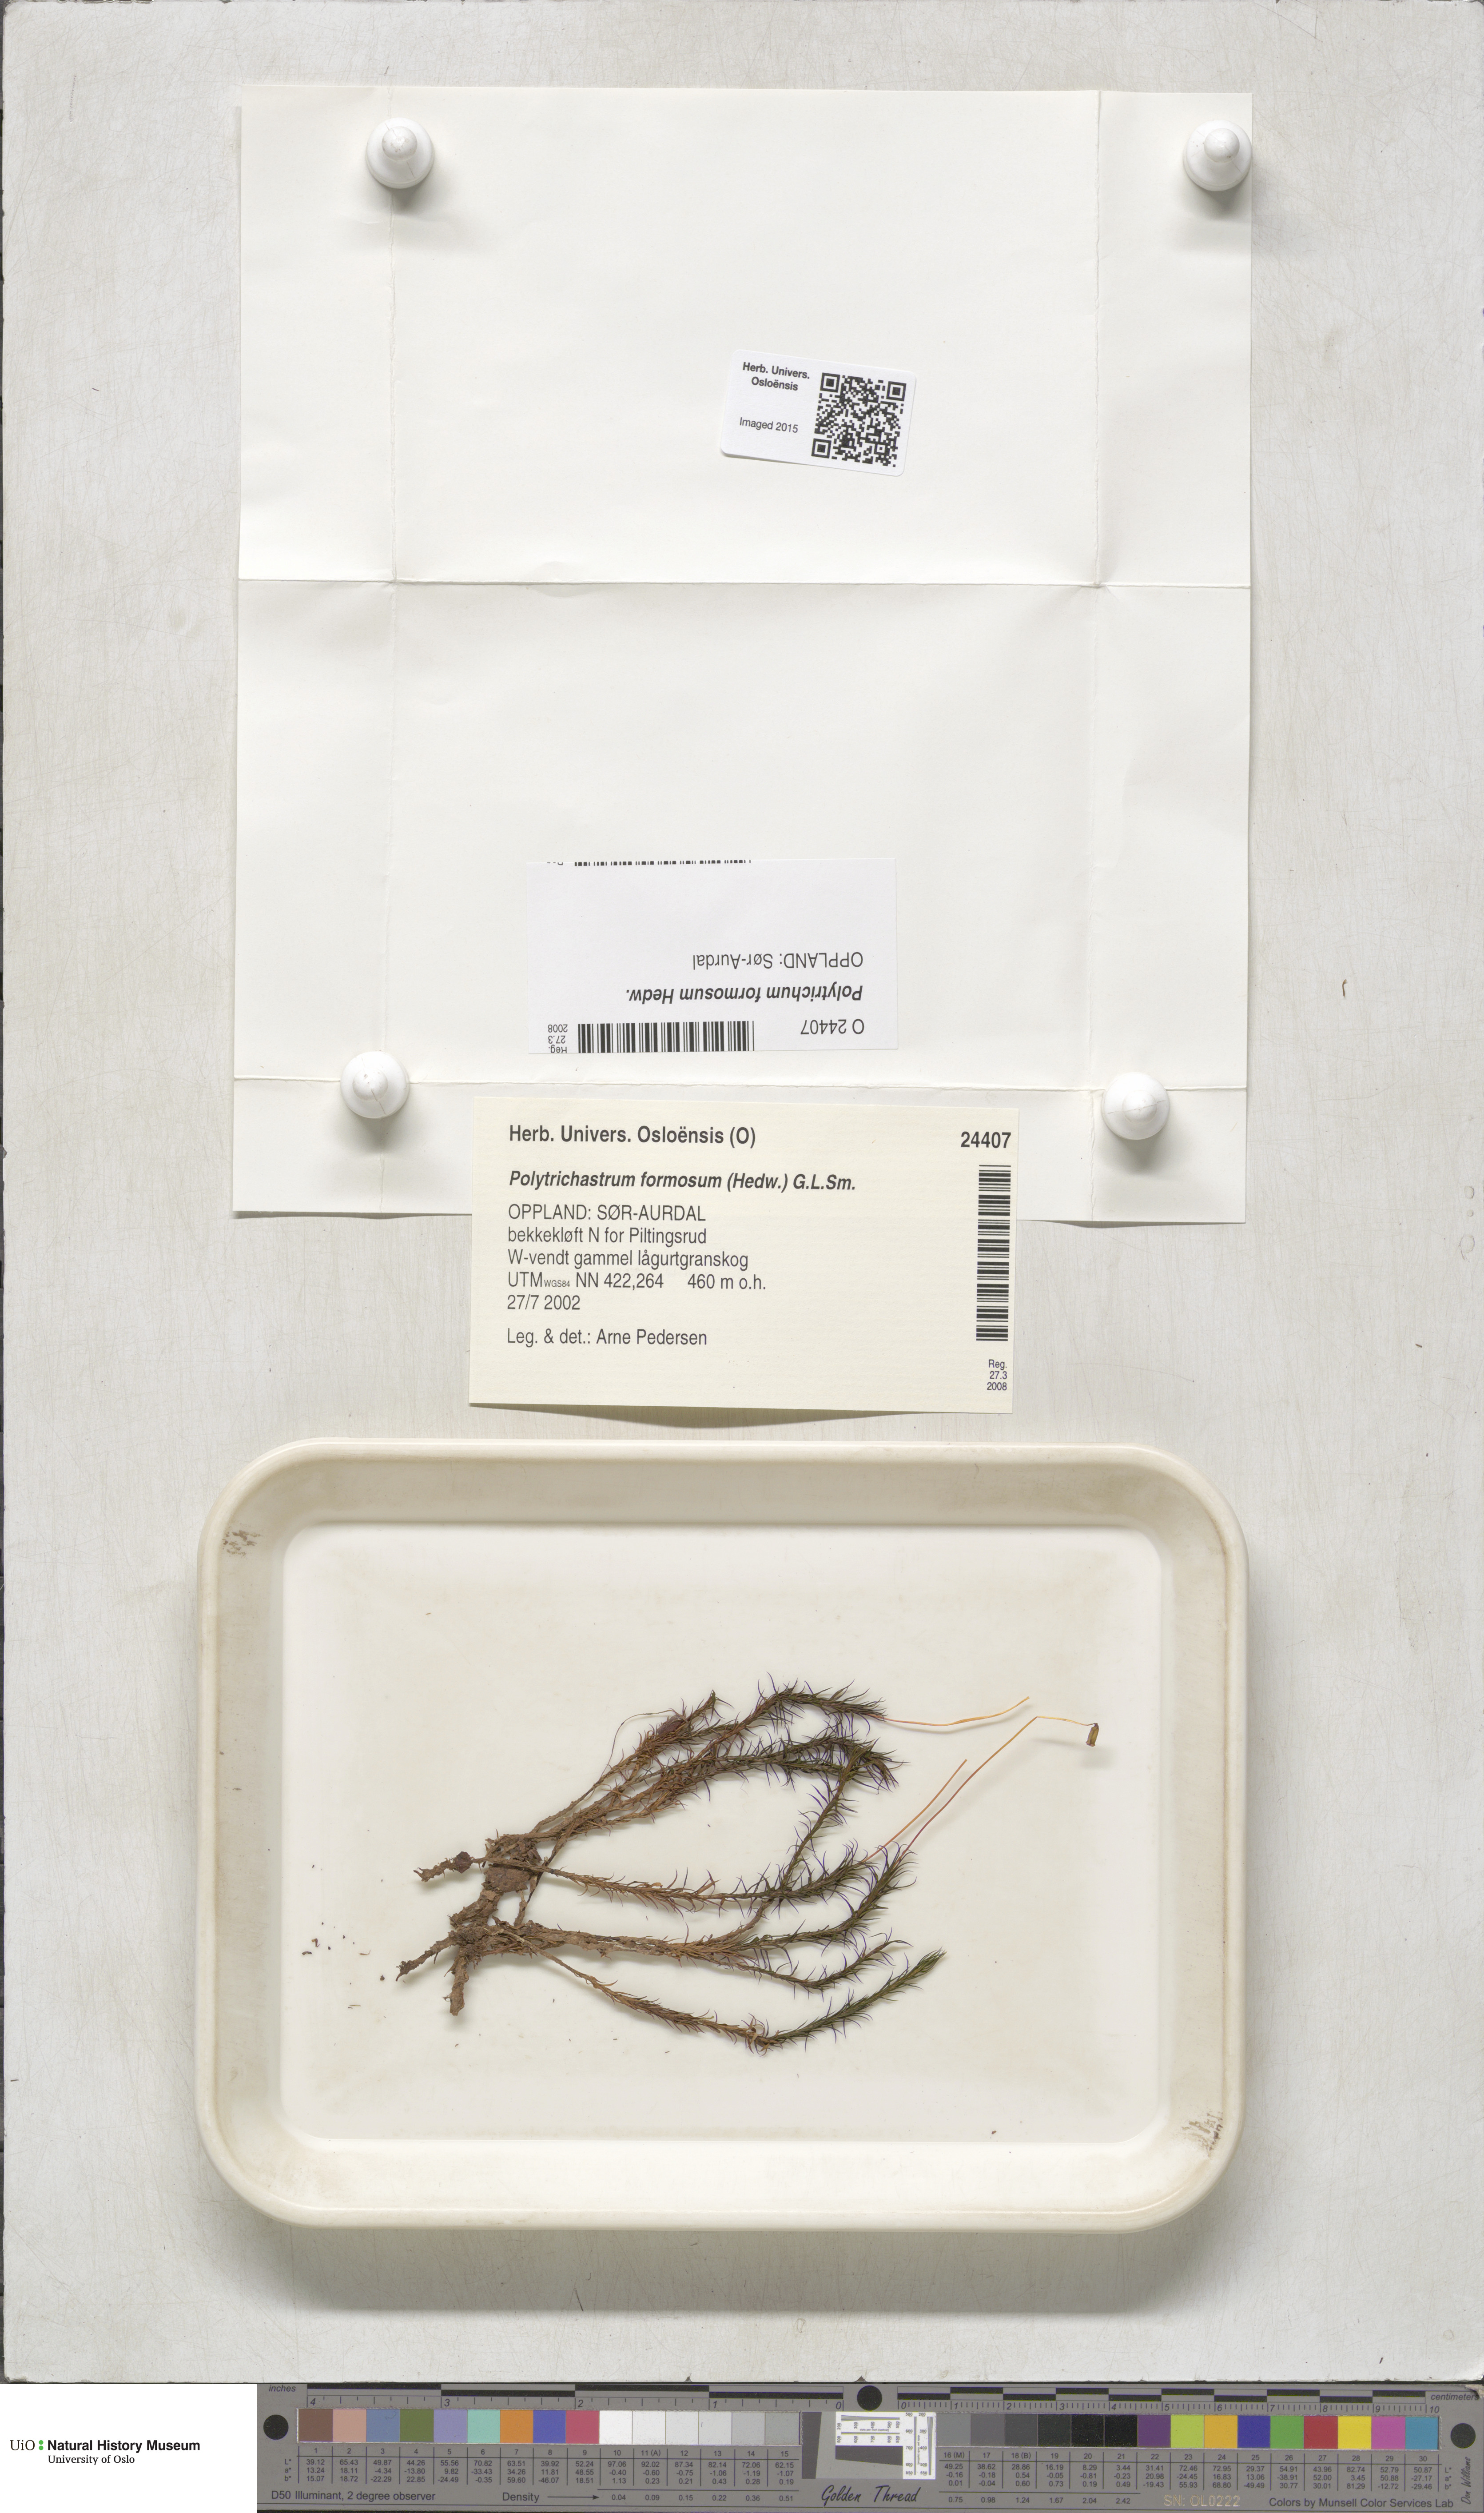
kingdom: Plantae
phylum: Bryophyta
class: Polytrichopsida
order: Polytrichales
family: Polytrichaceae
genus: Polytrichum
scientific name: Polytrichum formosum
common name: Bank haircap moss
